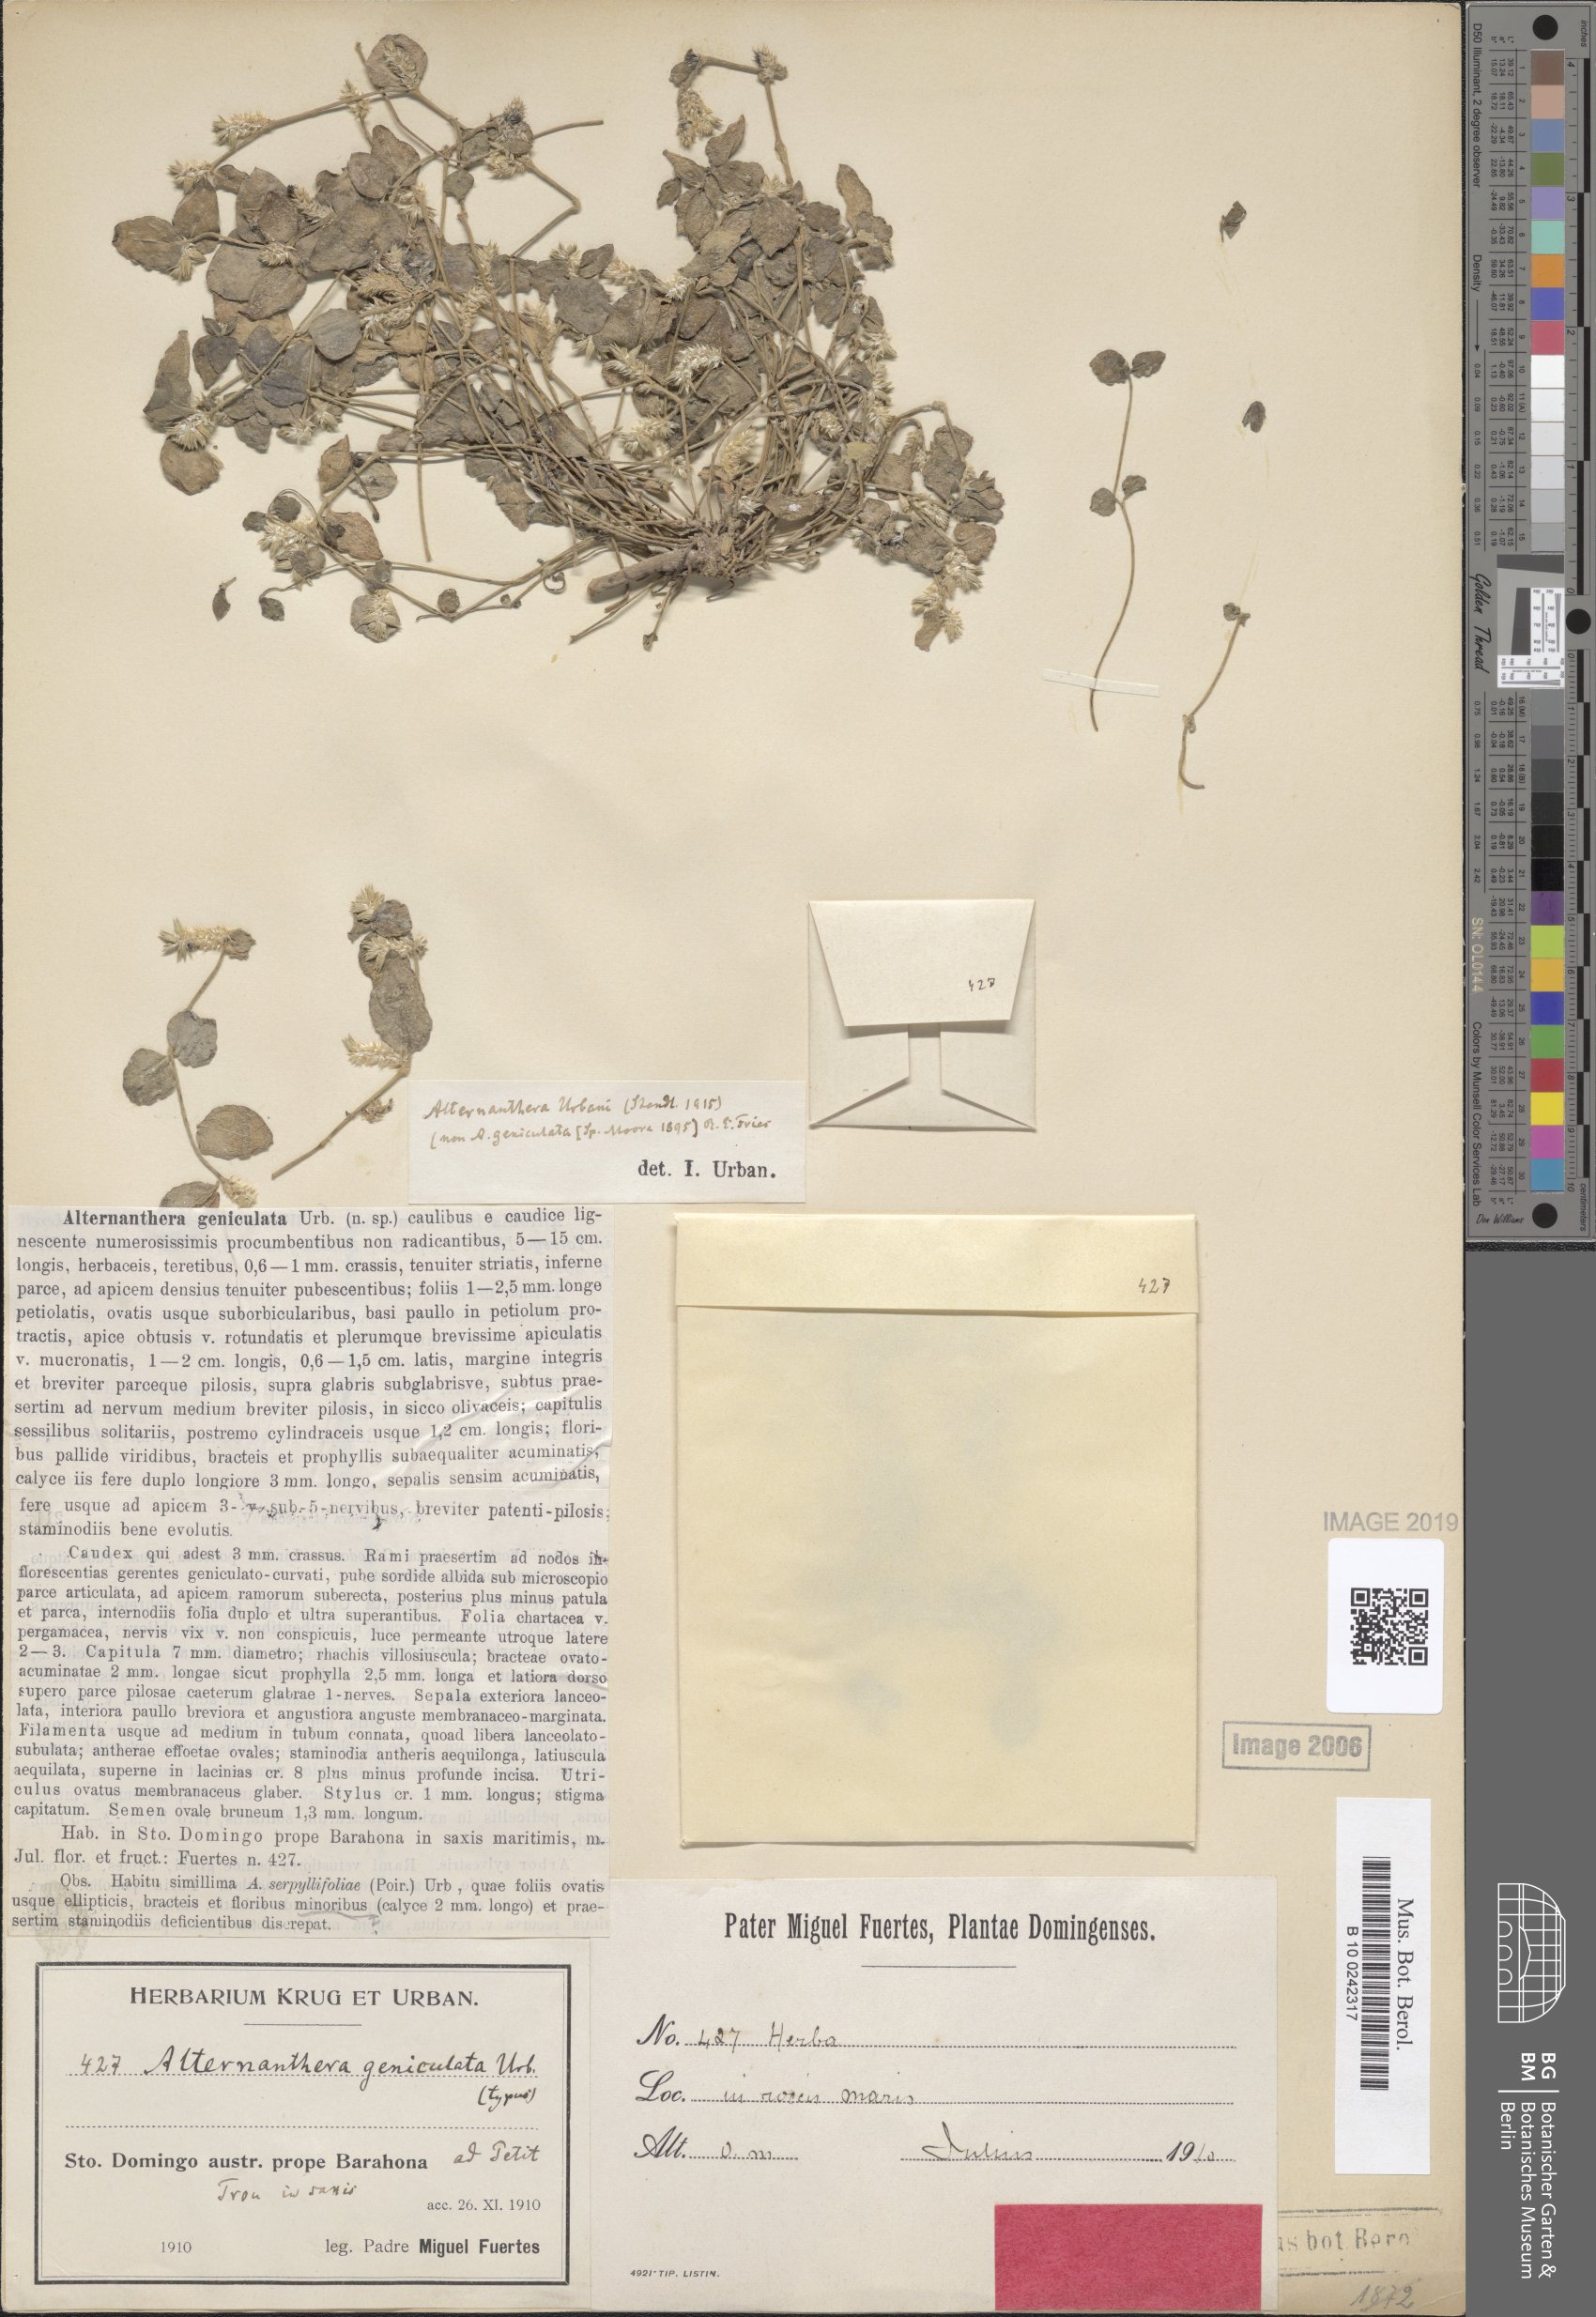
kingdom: Plantae
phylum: Tracheophyta
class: Magnoliopsida
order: Caryophyllales
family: Amaranthaceae
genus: Alternanthera
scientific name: Alternanthera geniculata
